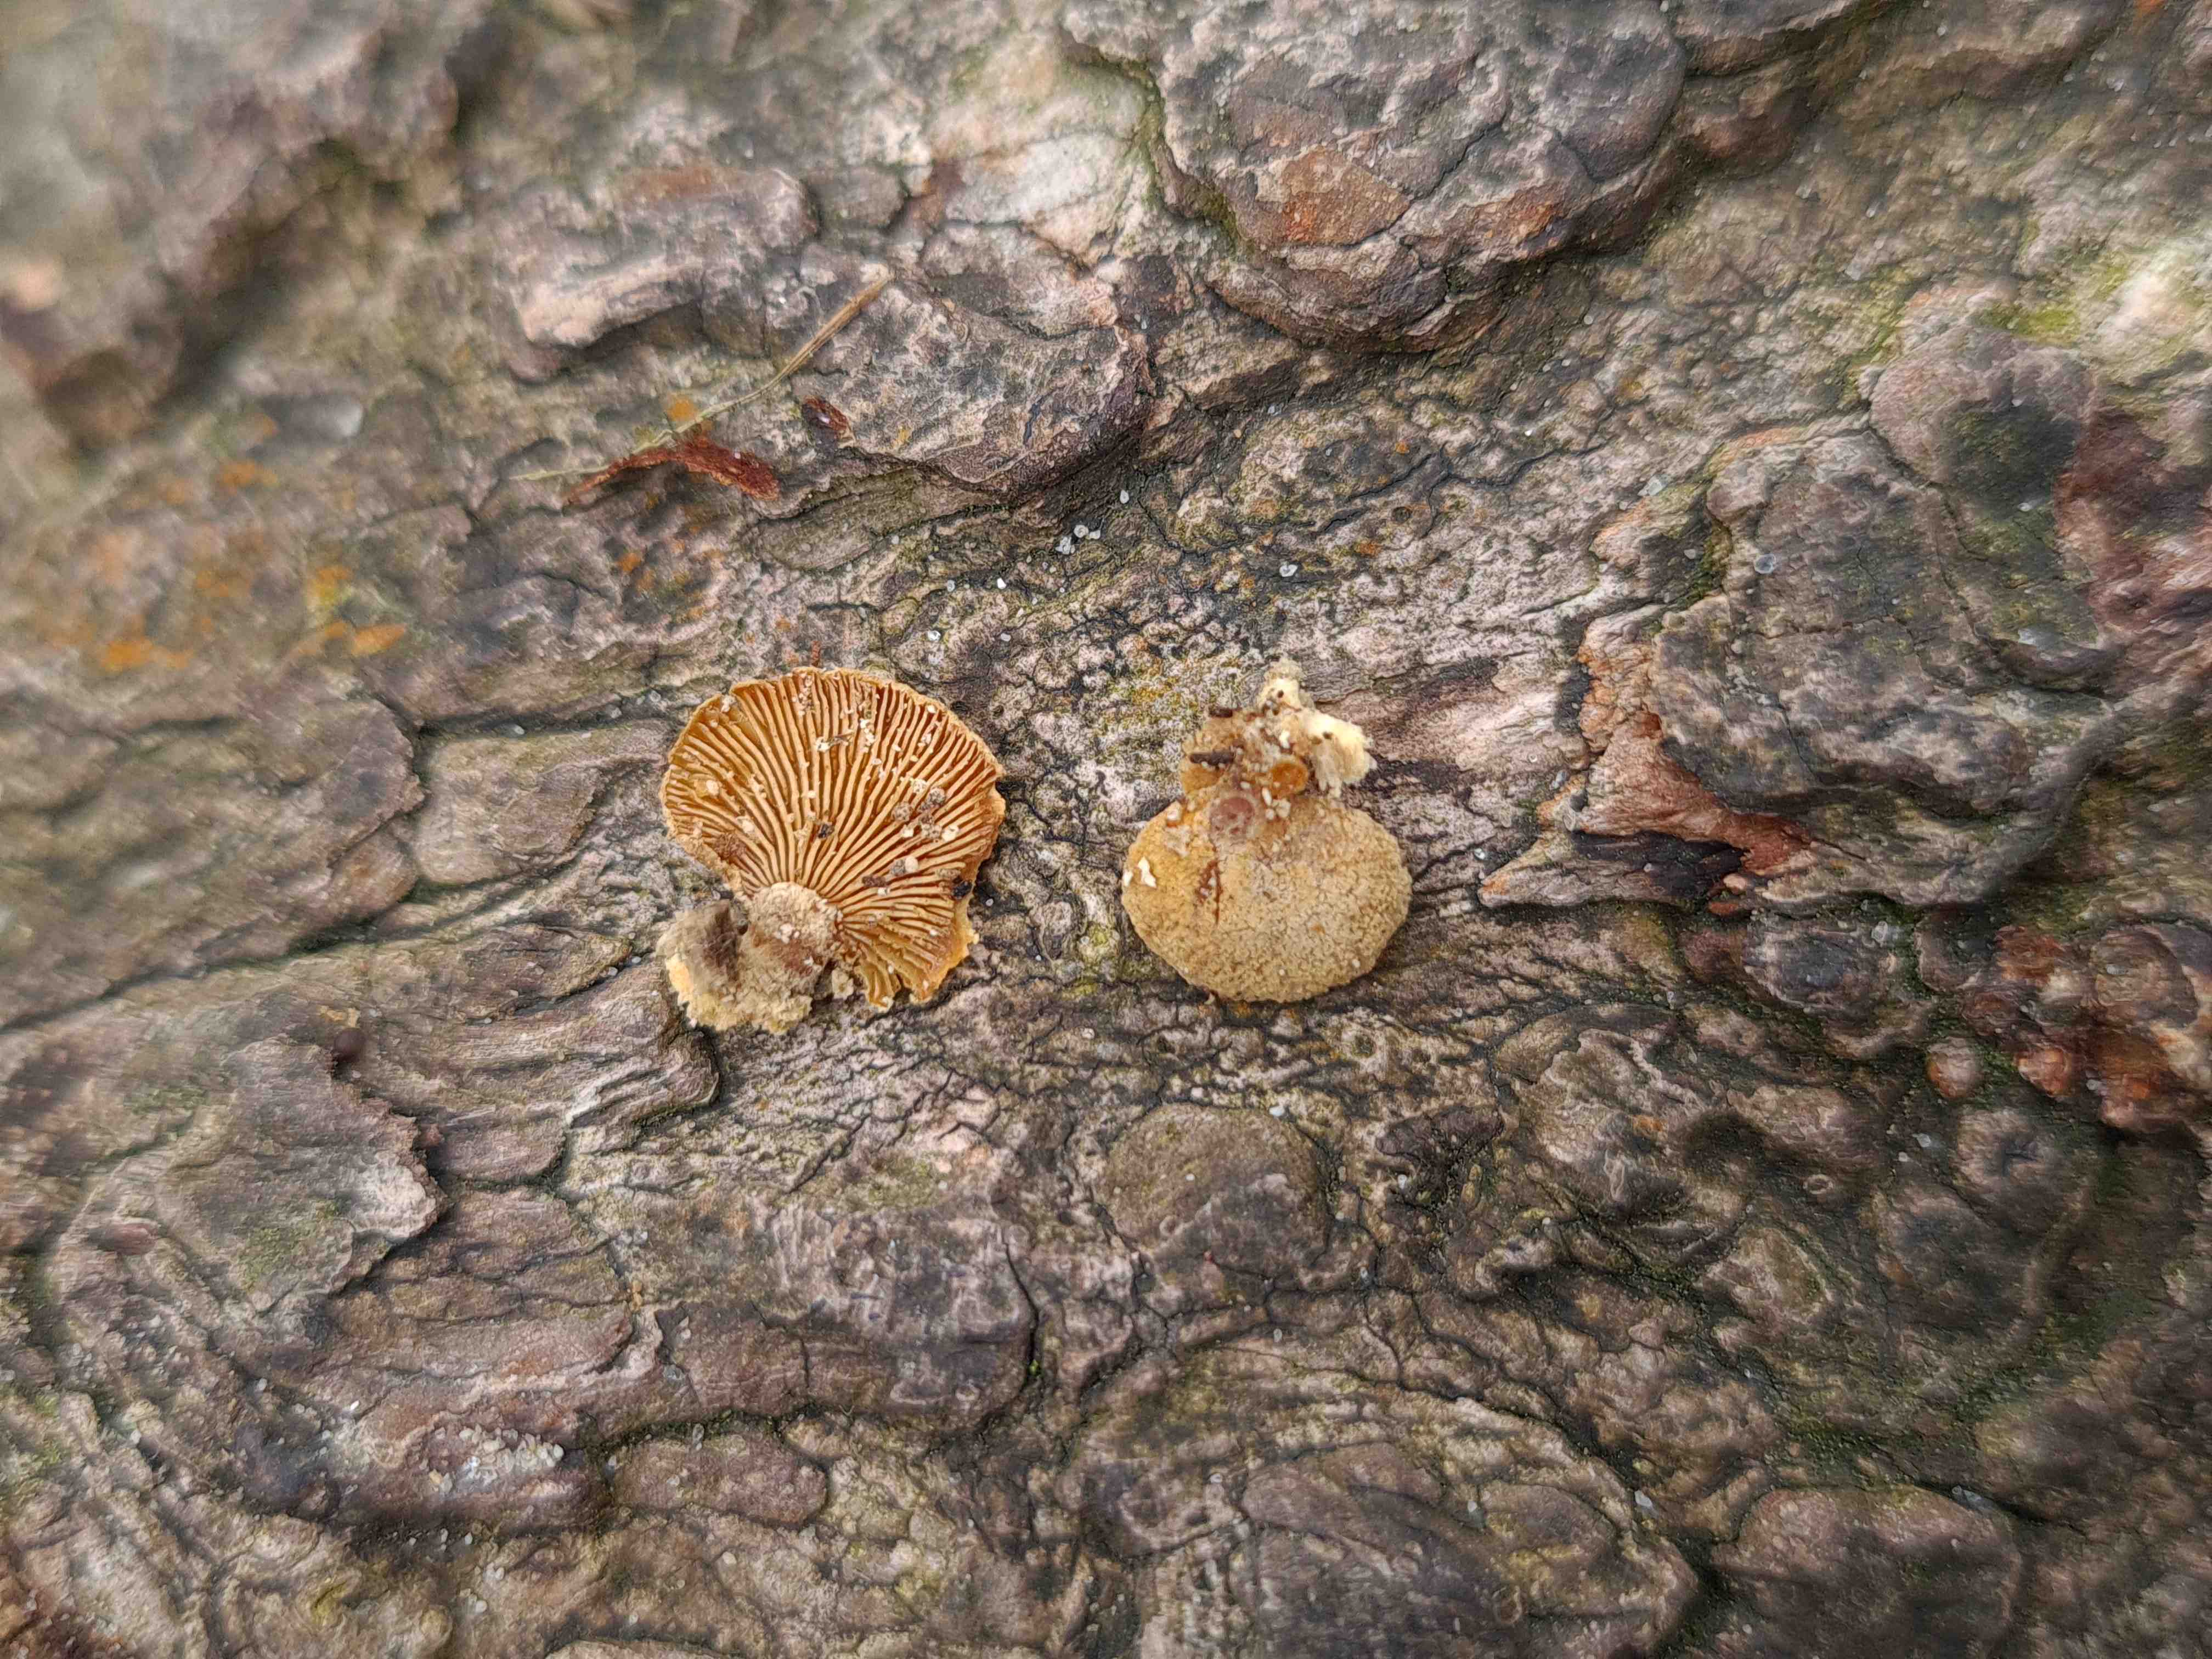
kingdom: Fungi
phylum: Basidiomycota
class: Agaricomycetes
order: Agaricales
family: Mycenaceae
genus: Panellus
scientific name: Panellus stipticus
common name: kliddet epaulethat
